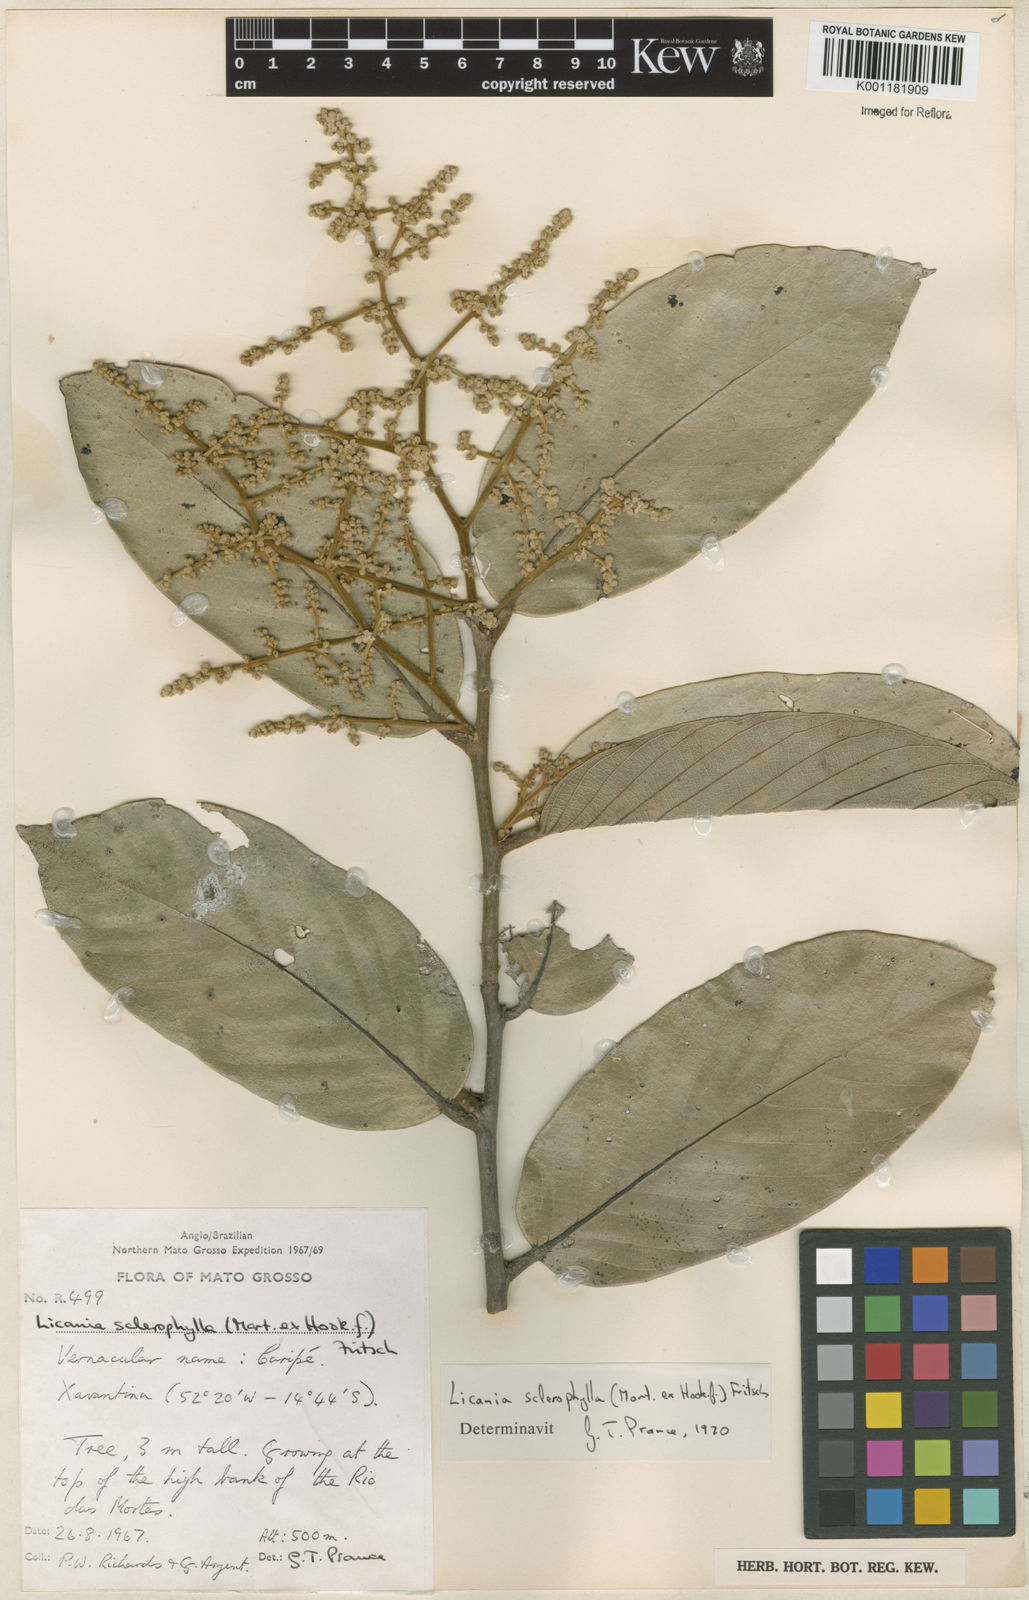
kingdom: Plantae
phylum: Tracheophyta
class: Magnoliopsida
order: Malpighiales
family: Chrysobalanaceae
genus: Leptobalanus
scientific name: Leptobalanus sclerophyllus
